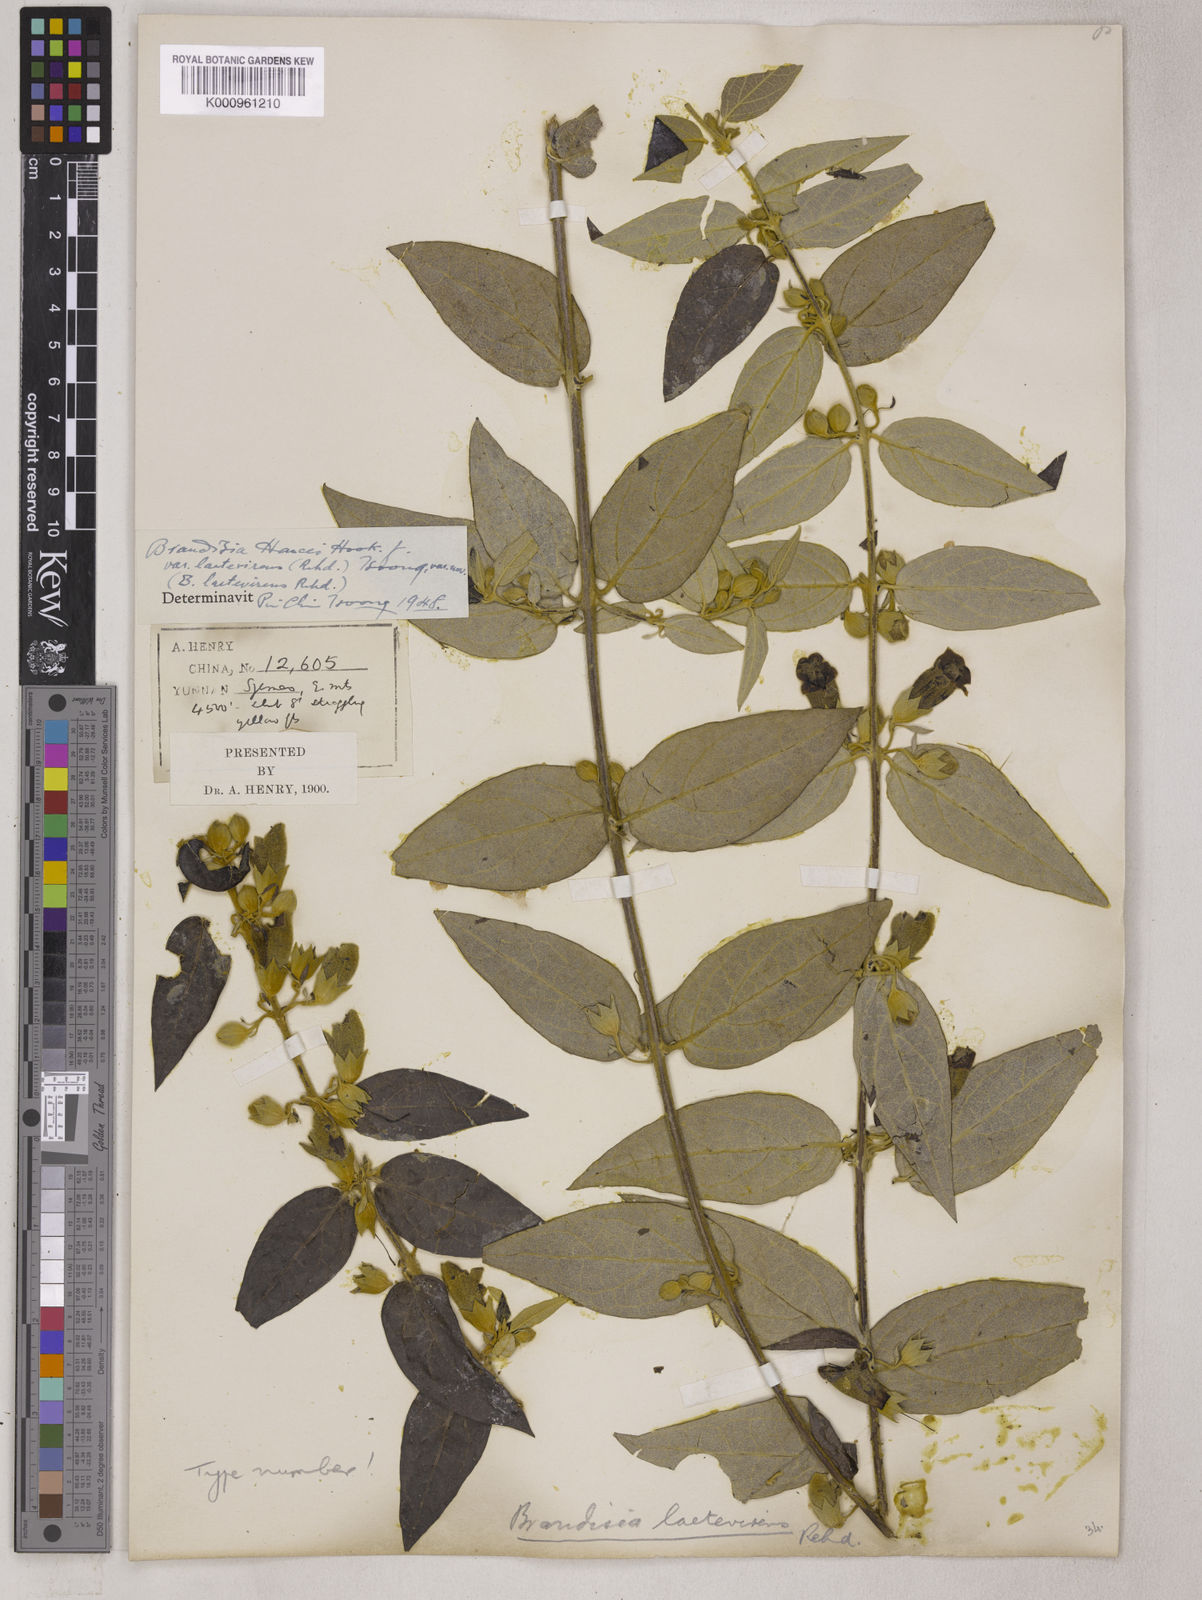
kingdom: Plantae
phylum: Tracheophyta
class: Magnoliopsida
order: Lamiales
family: Orobanchaceae
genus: Brandisia
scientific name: Brandisia hancei
